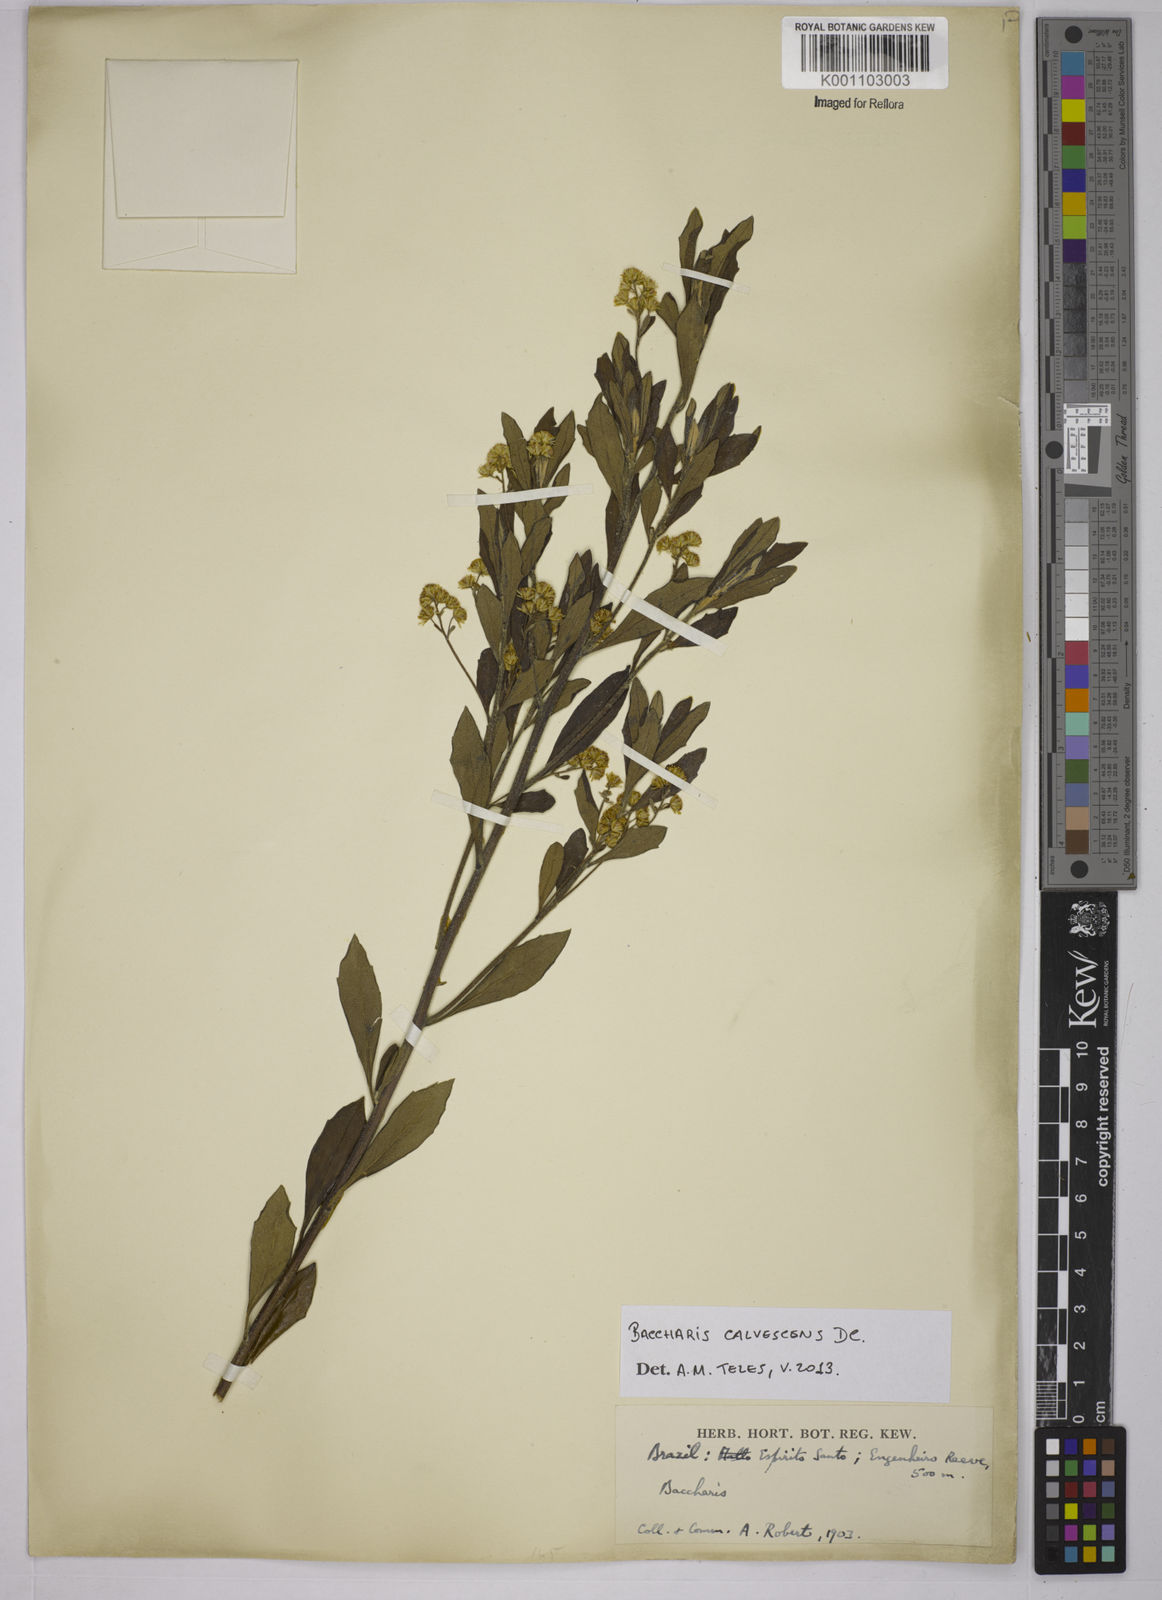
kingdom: Plantae
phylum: Tracheophyta
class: Magnoliopsida
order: Asterales
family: Asteraceae
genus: Baccharis
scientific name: Baccharis calvescens
